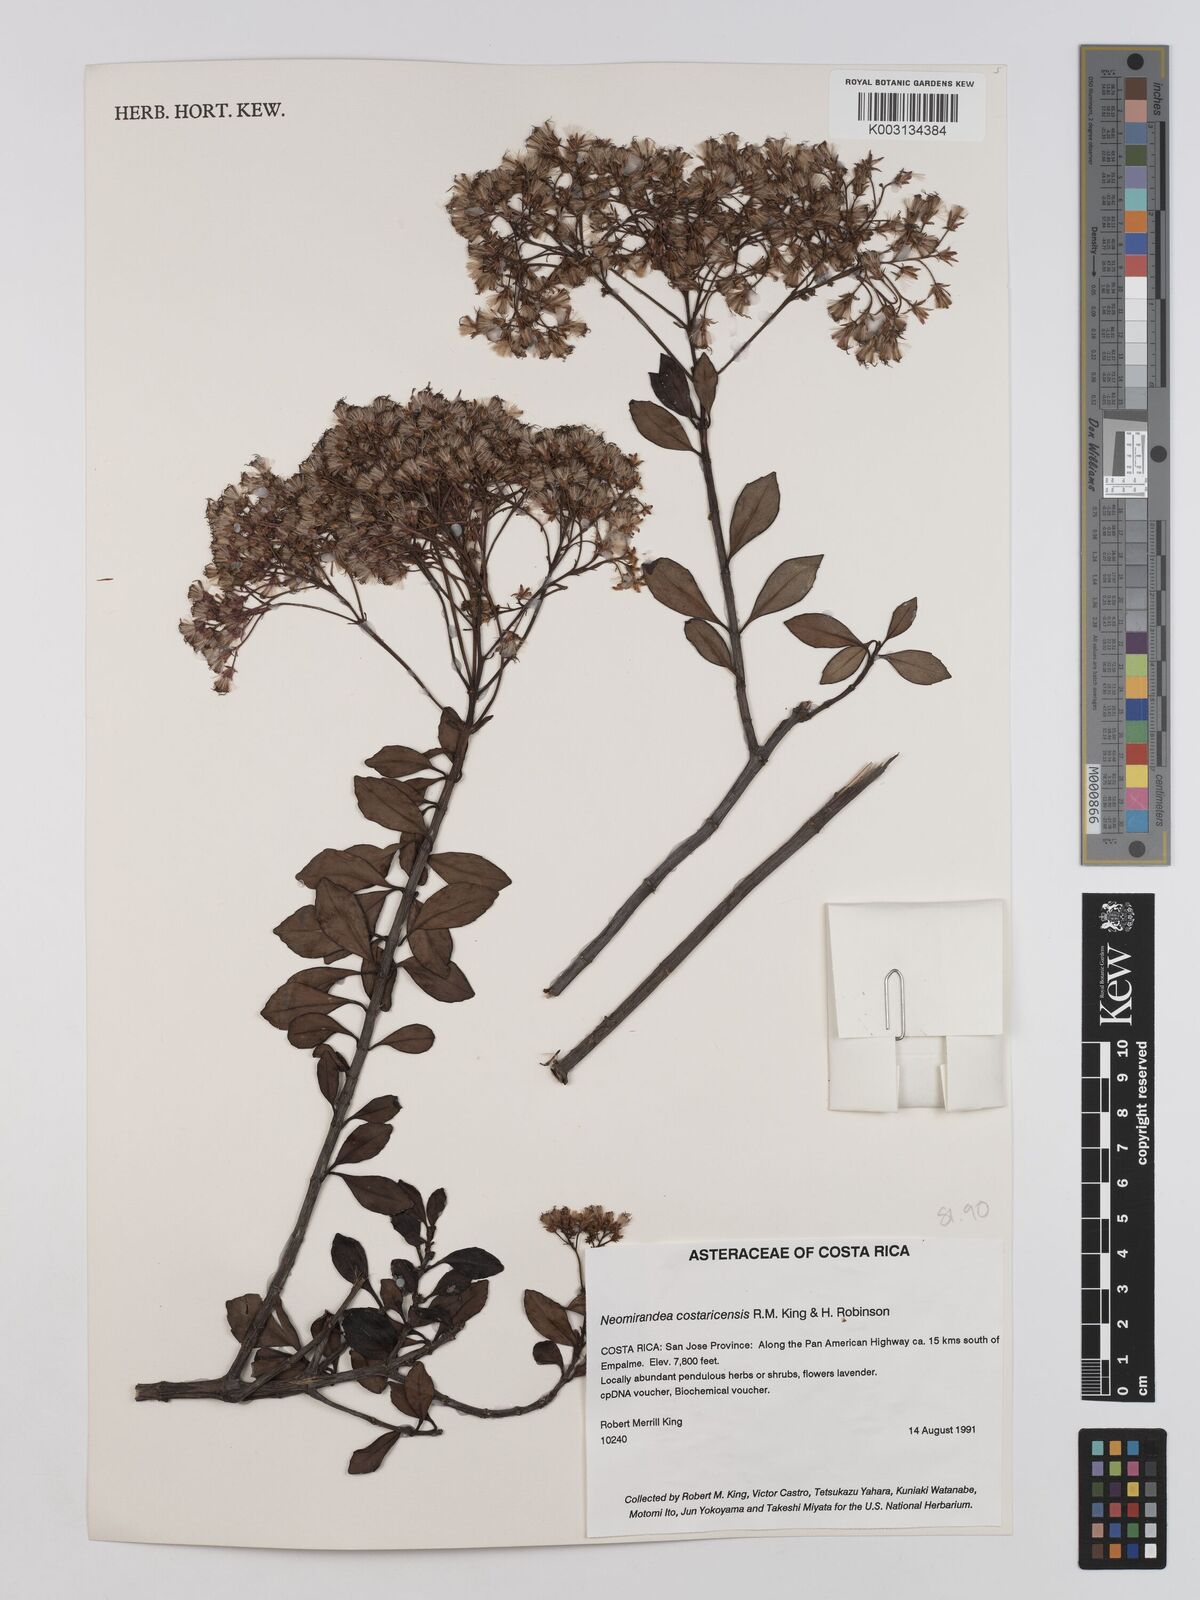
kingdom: Plantae
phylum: Tracheophyta
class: Magnoliopsida
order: Asterales
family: Asteraceae
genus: Neomirandea
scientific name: Neomirandea costaricensis
